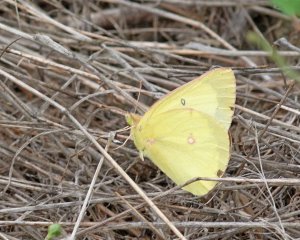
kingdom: Animalia
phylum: Arthropoda
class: Insecta
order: Lepidoptera
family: Pieridae
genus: Colias
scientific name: Colias philodice
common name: Clouded Sulphur
